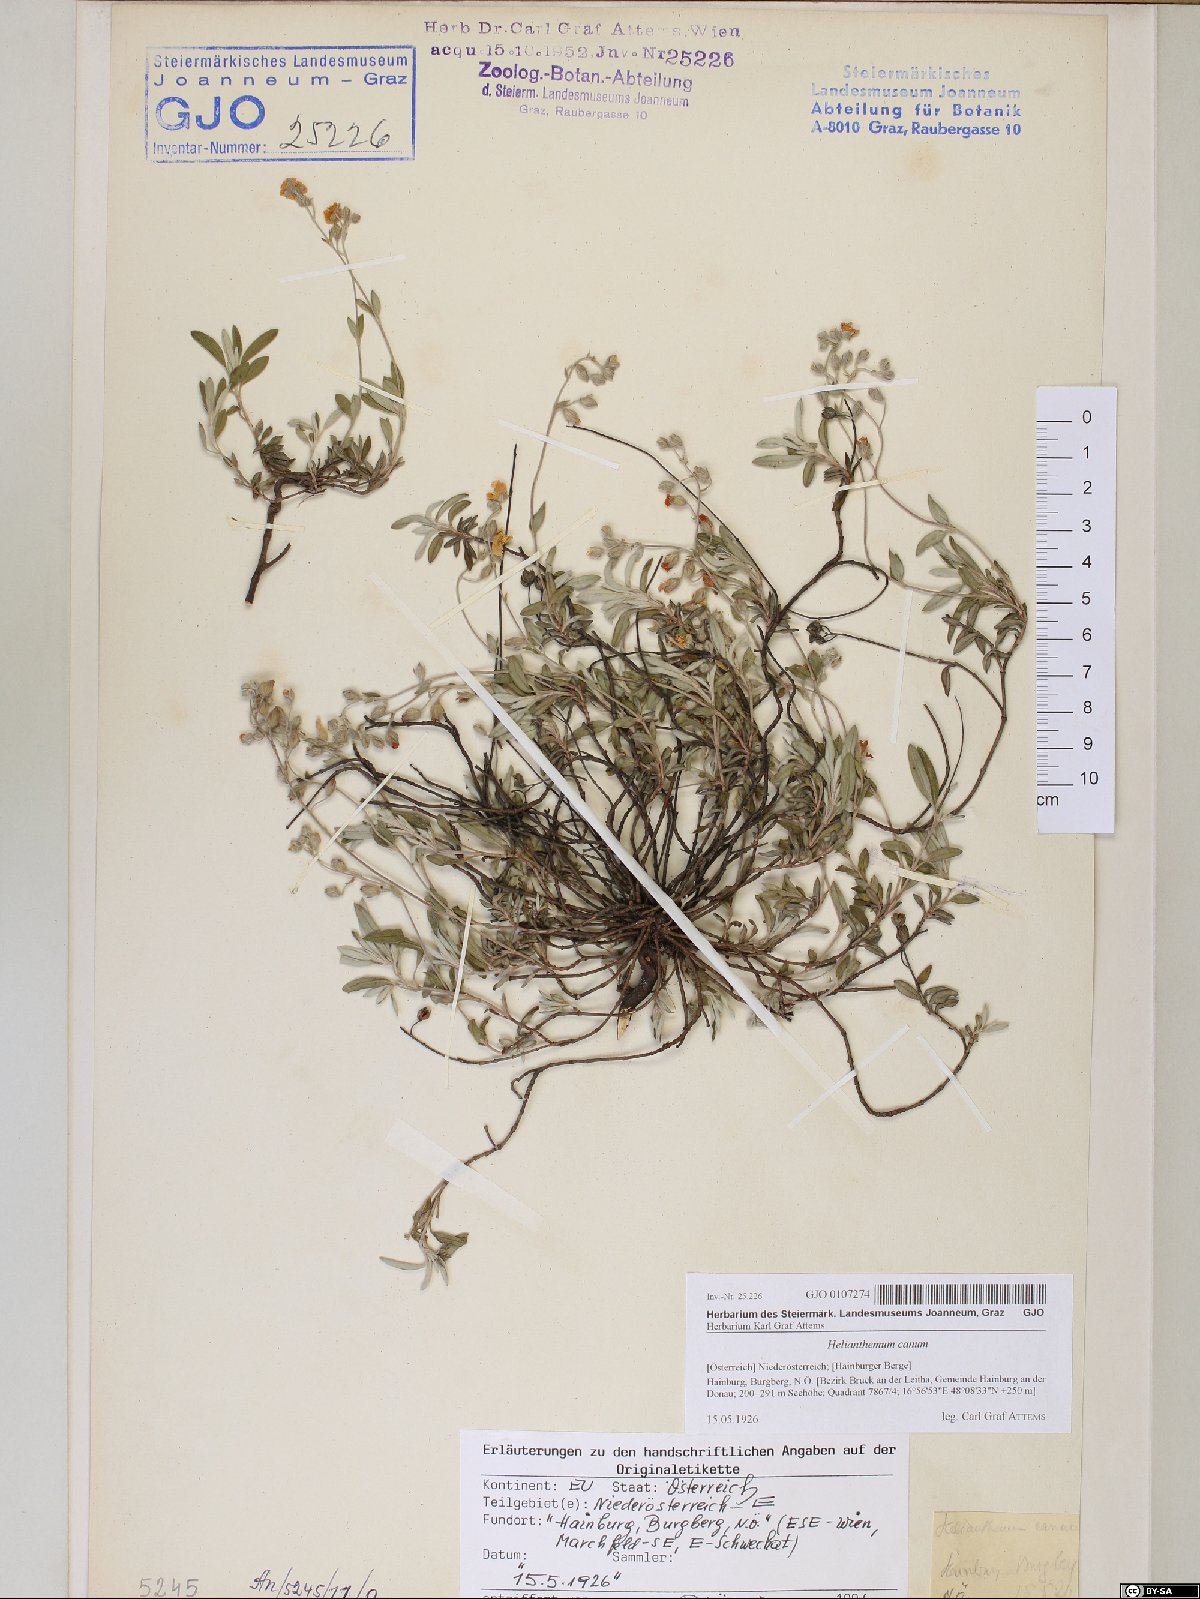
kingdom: Plantae
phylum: Tracheophyta
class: Magnoliopsida
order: Malvales
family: Cistaceae
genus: Helianthemum
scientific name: Helianthemum canum
